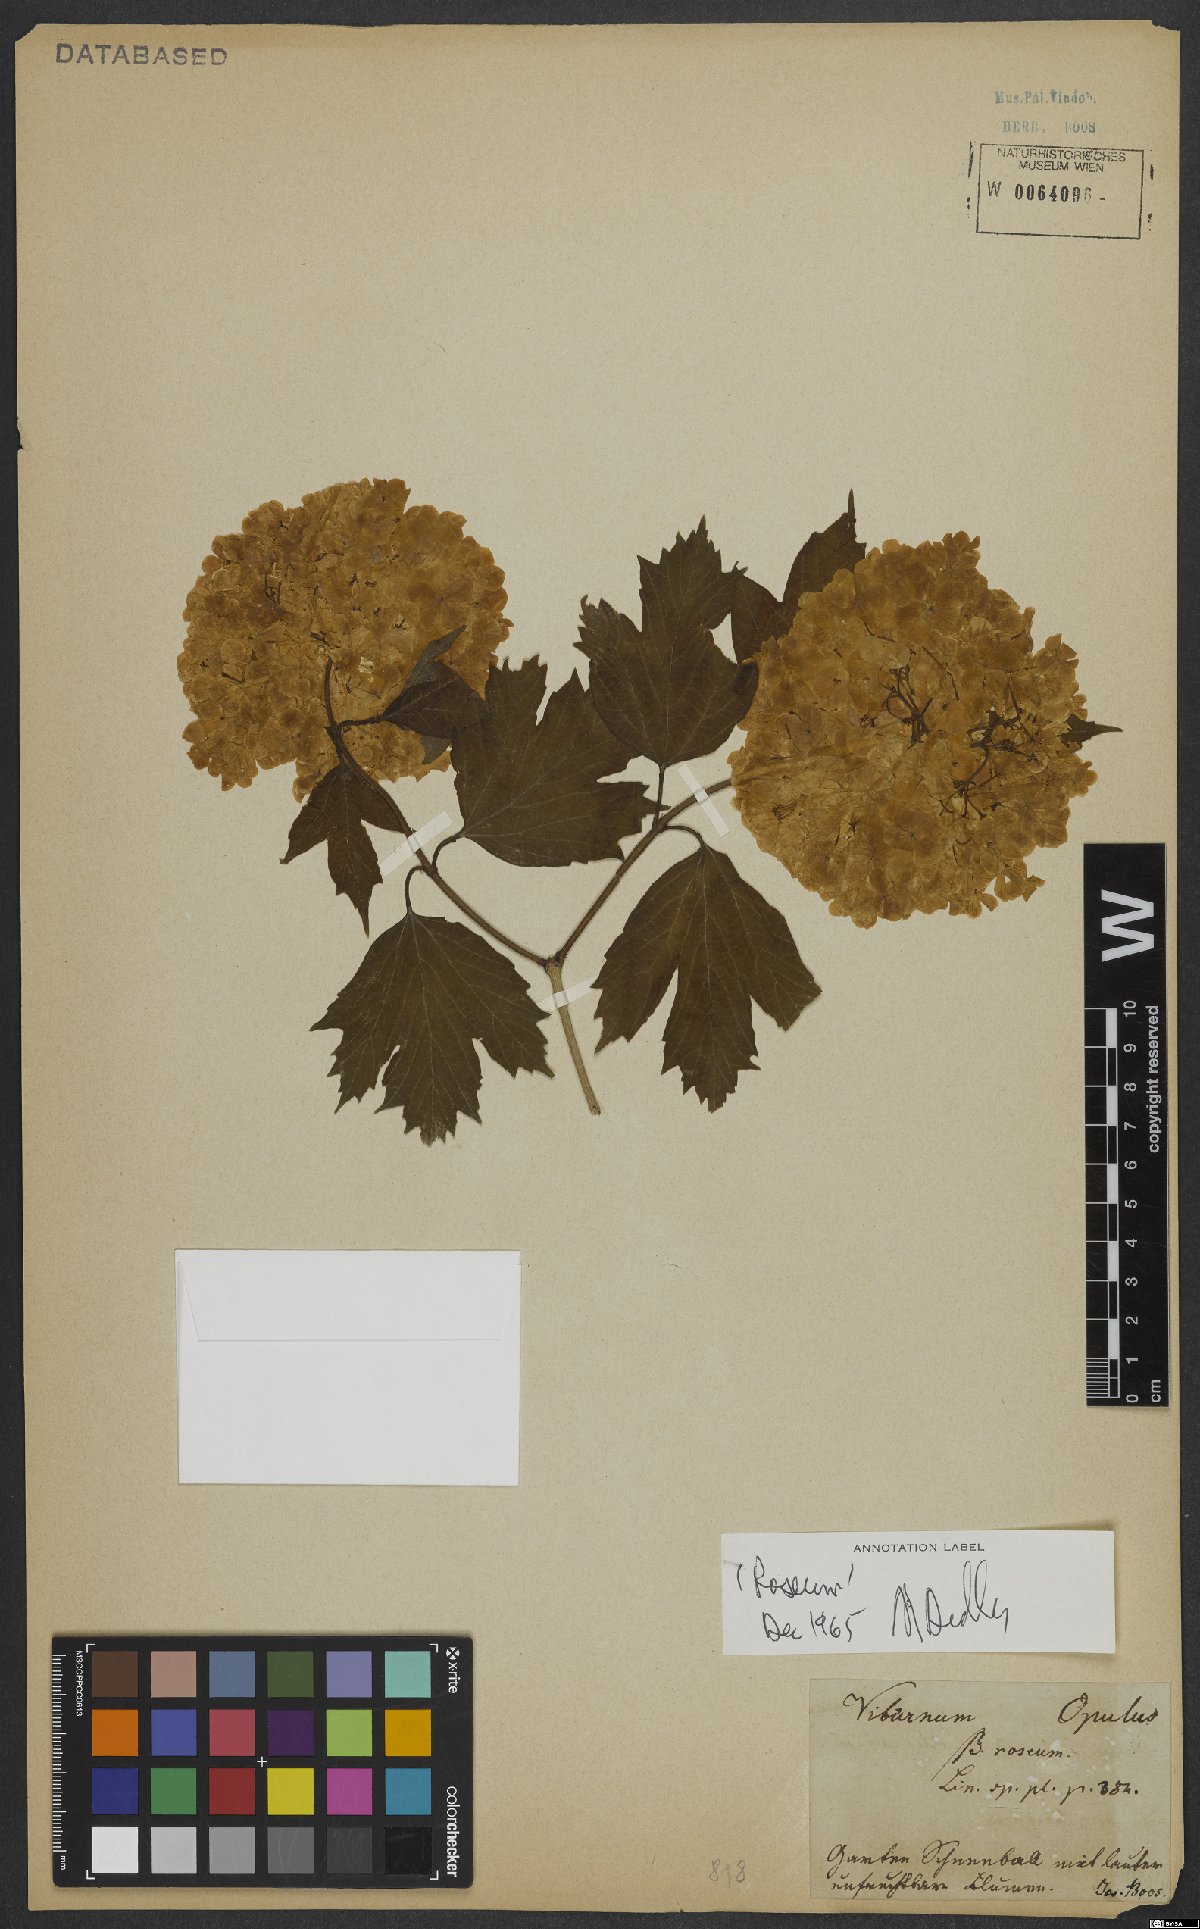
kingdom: Plantae
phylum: Tracheophyta
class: Magnoliopsida
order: Dipsacales
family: Viburnaceae
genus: Viburnum
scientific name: Viburnum opulus
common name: Guelder-rose
